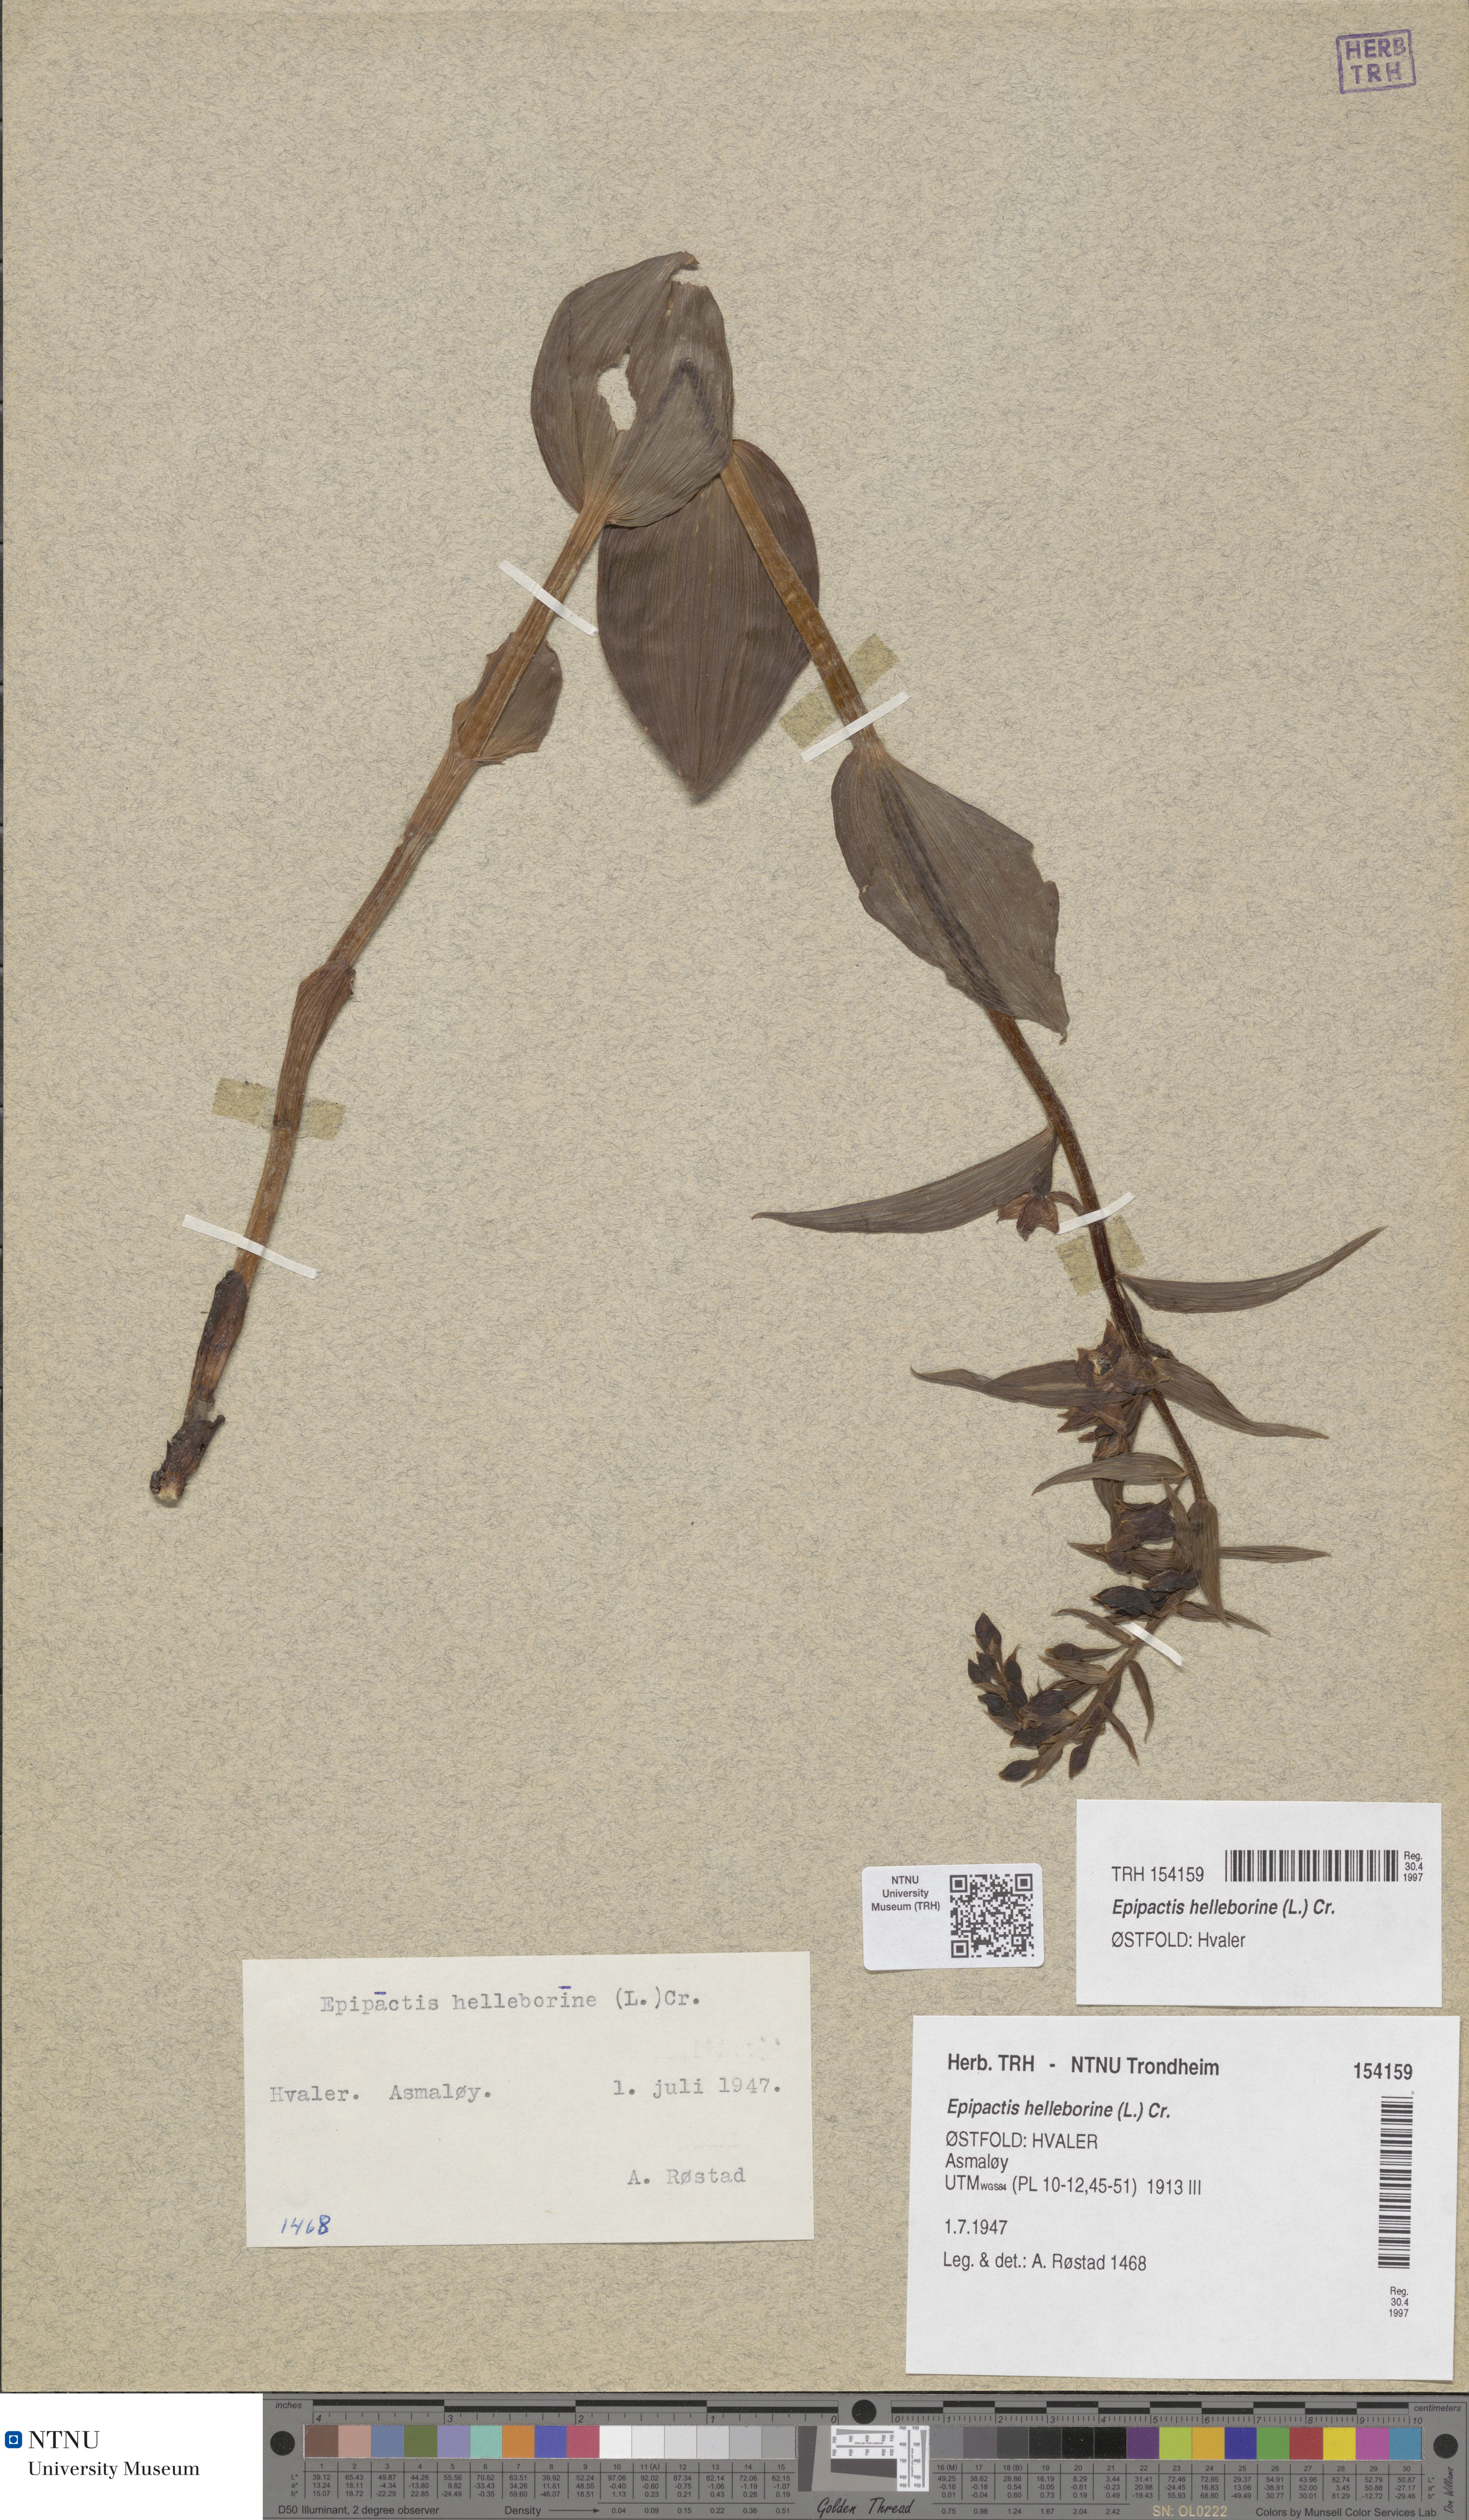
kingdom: Plantae
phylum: Tracheophyta
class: Liliopsida
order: Asparagales
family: Orchidaceae
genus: Epipactis
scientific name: Epipactis helleborine
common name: Broad-leaved helleborine
